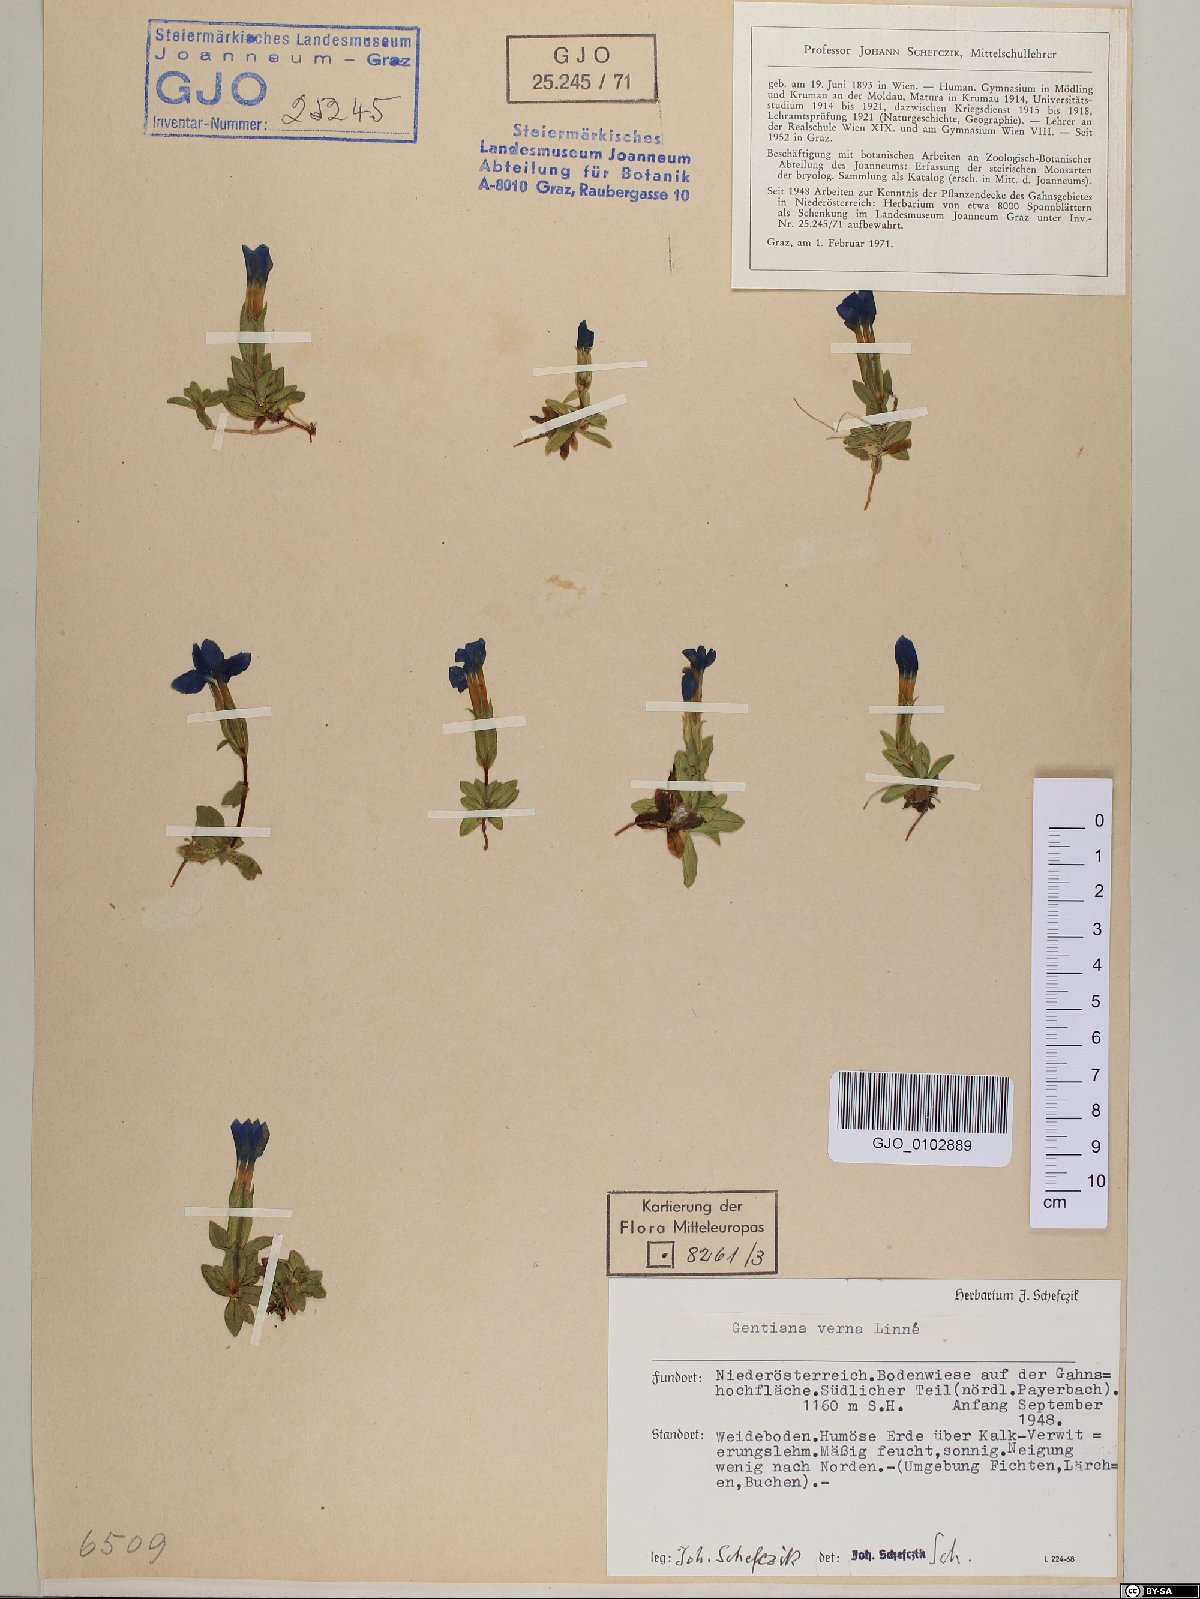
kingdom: Plantae
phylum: Tracheophyta
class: Magnoliopsida
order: Gentianales
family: Gentianaceae
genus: Gentiana
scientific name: Gentiana verna
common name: Spring gentian
